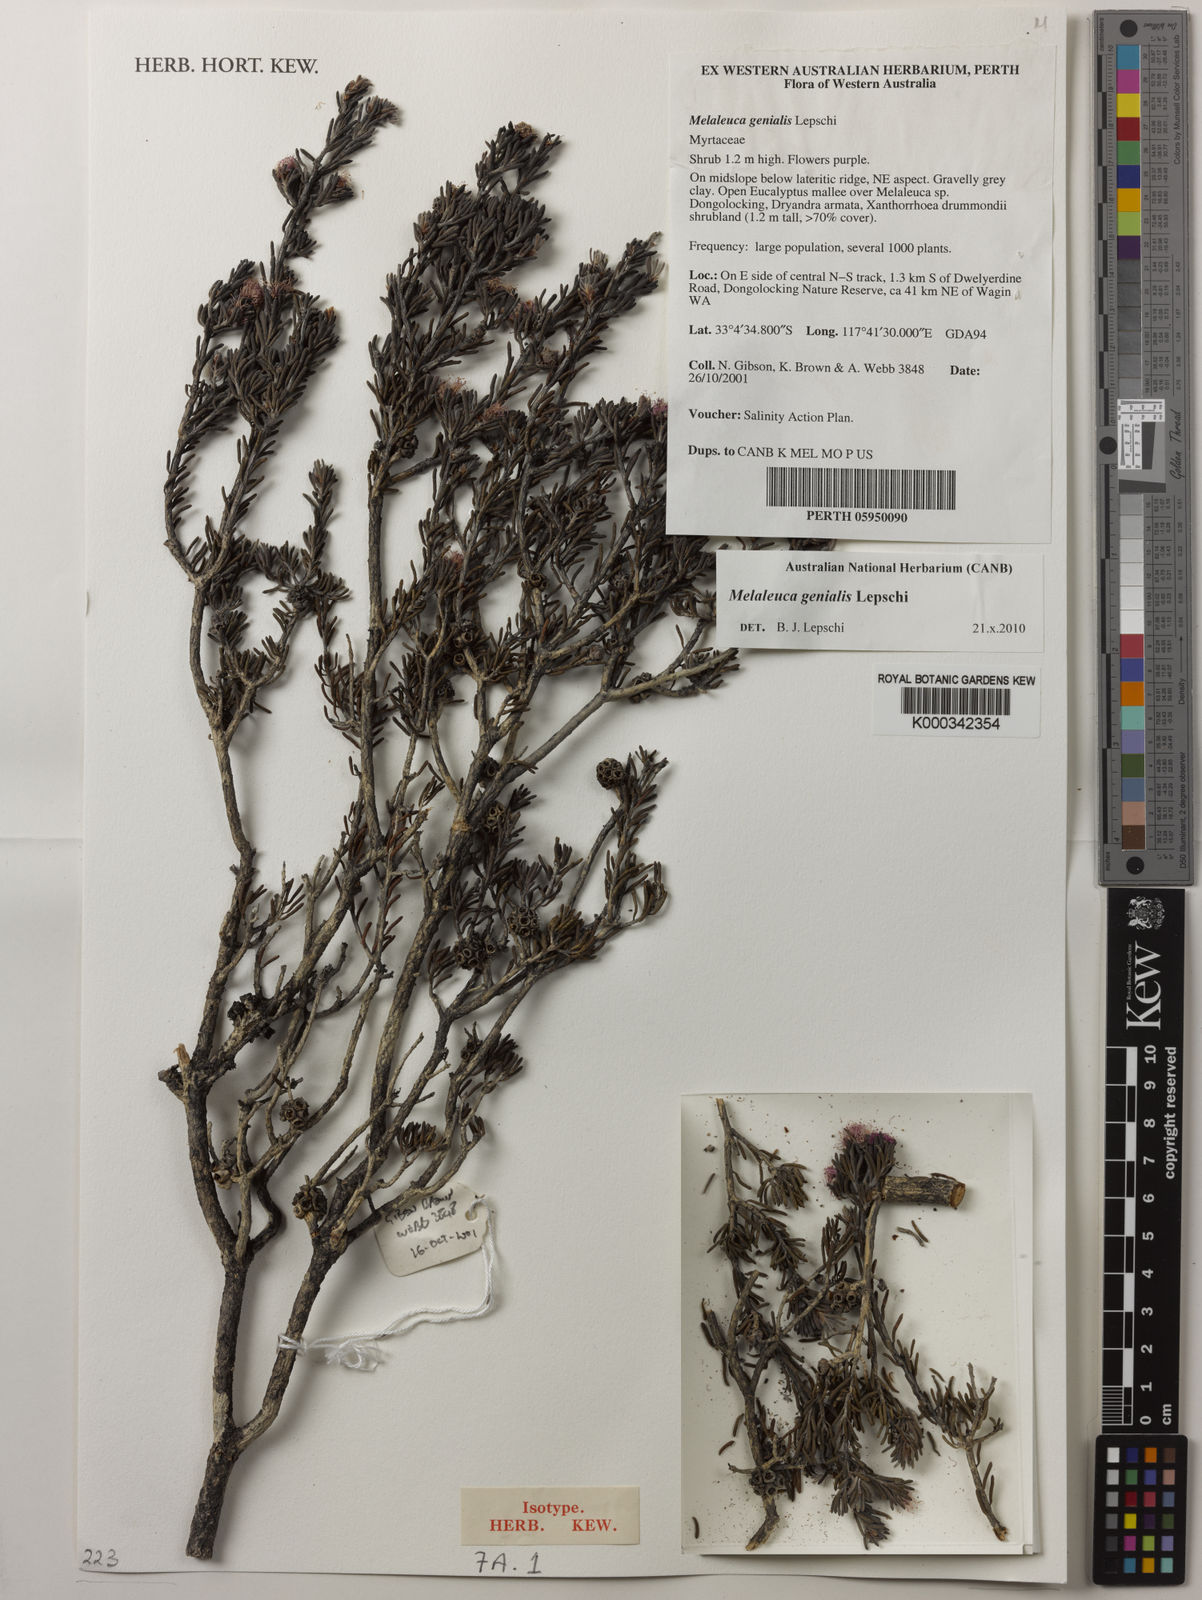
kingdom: Plantae
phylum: Tracheophyta
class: Magnoliopsida
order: Myrtales
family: Myrtaceae
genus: Melaleuca
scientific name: Melaleuca genialis
